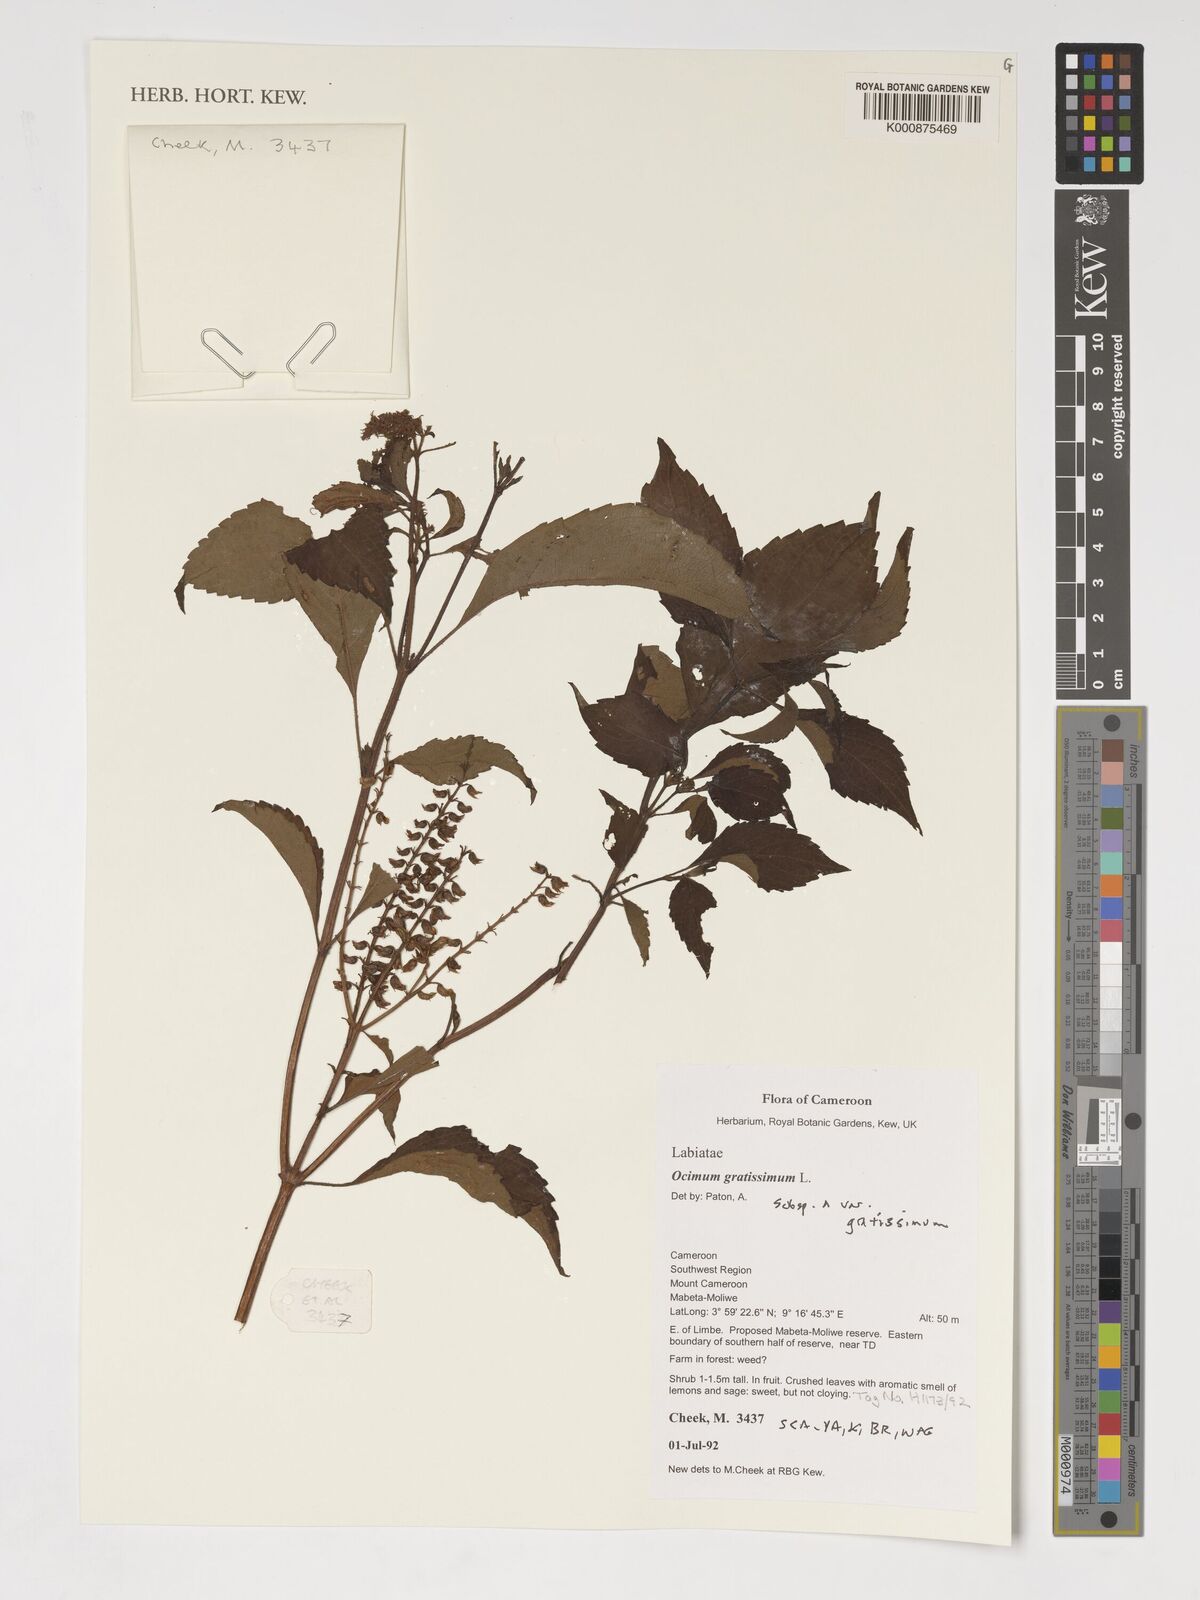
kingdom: Plantae
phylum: Tracheophyta
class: Magnoliopsida
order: Lamiales
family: Lamiaceae
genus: Ocimum
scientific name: Ocimum gratissimum
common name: African basil
